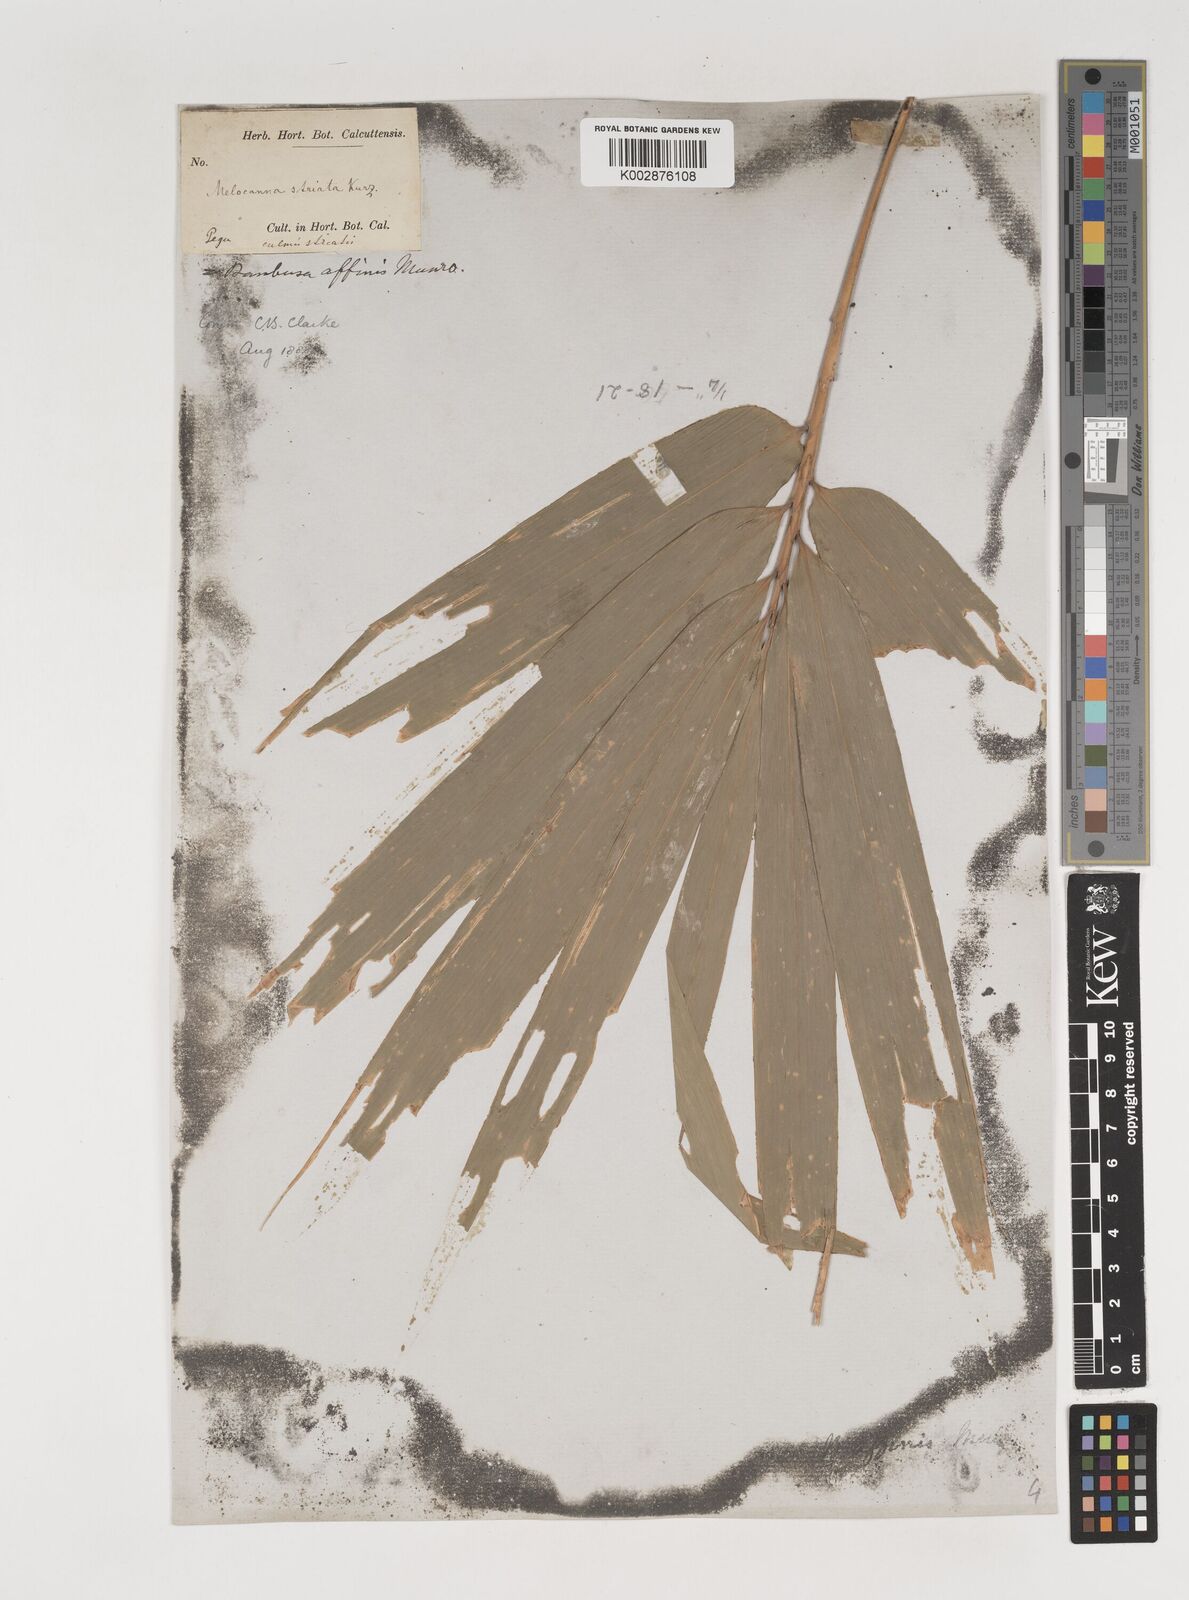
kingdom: Plantae
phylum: Tracheophyta
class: Liliopsida
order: Poales
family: Poaceae
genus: Bambusa
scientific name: Bambusa affinis
